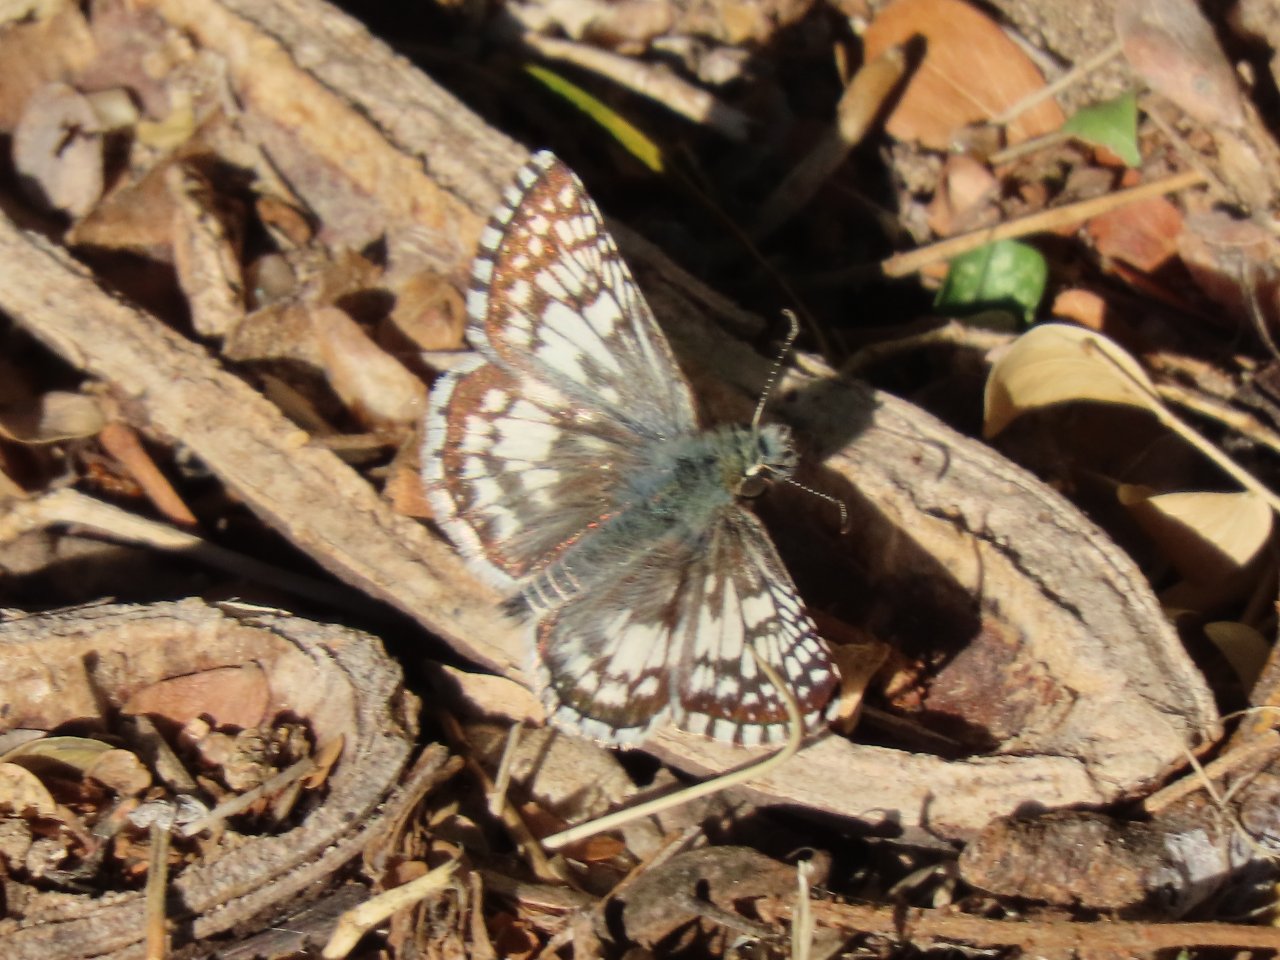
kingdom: Animalia
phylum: Arthropoda
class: Insecta
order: Lepidoptera
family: Hesperiidae
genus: Pyrgus
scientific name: Pyrgus communis
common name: White Checkered-Skipper
